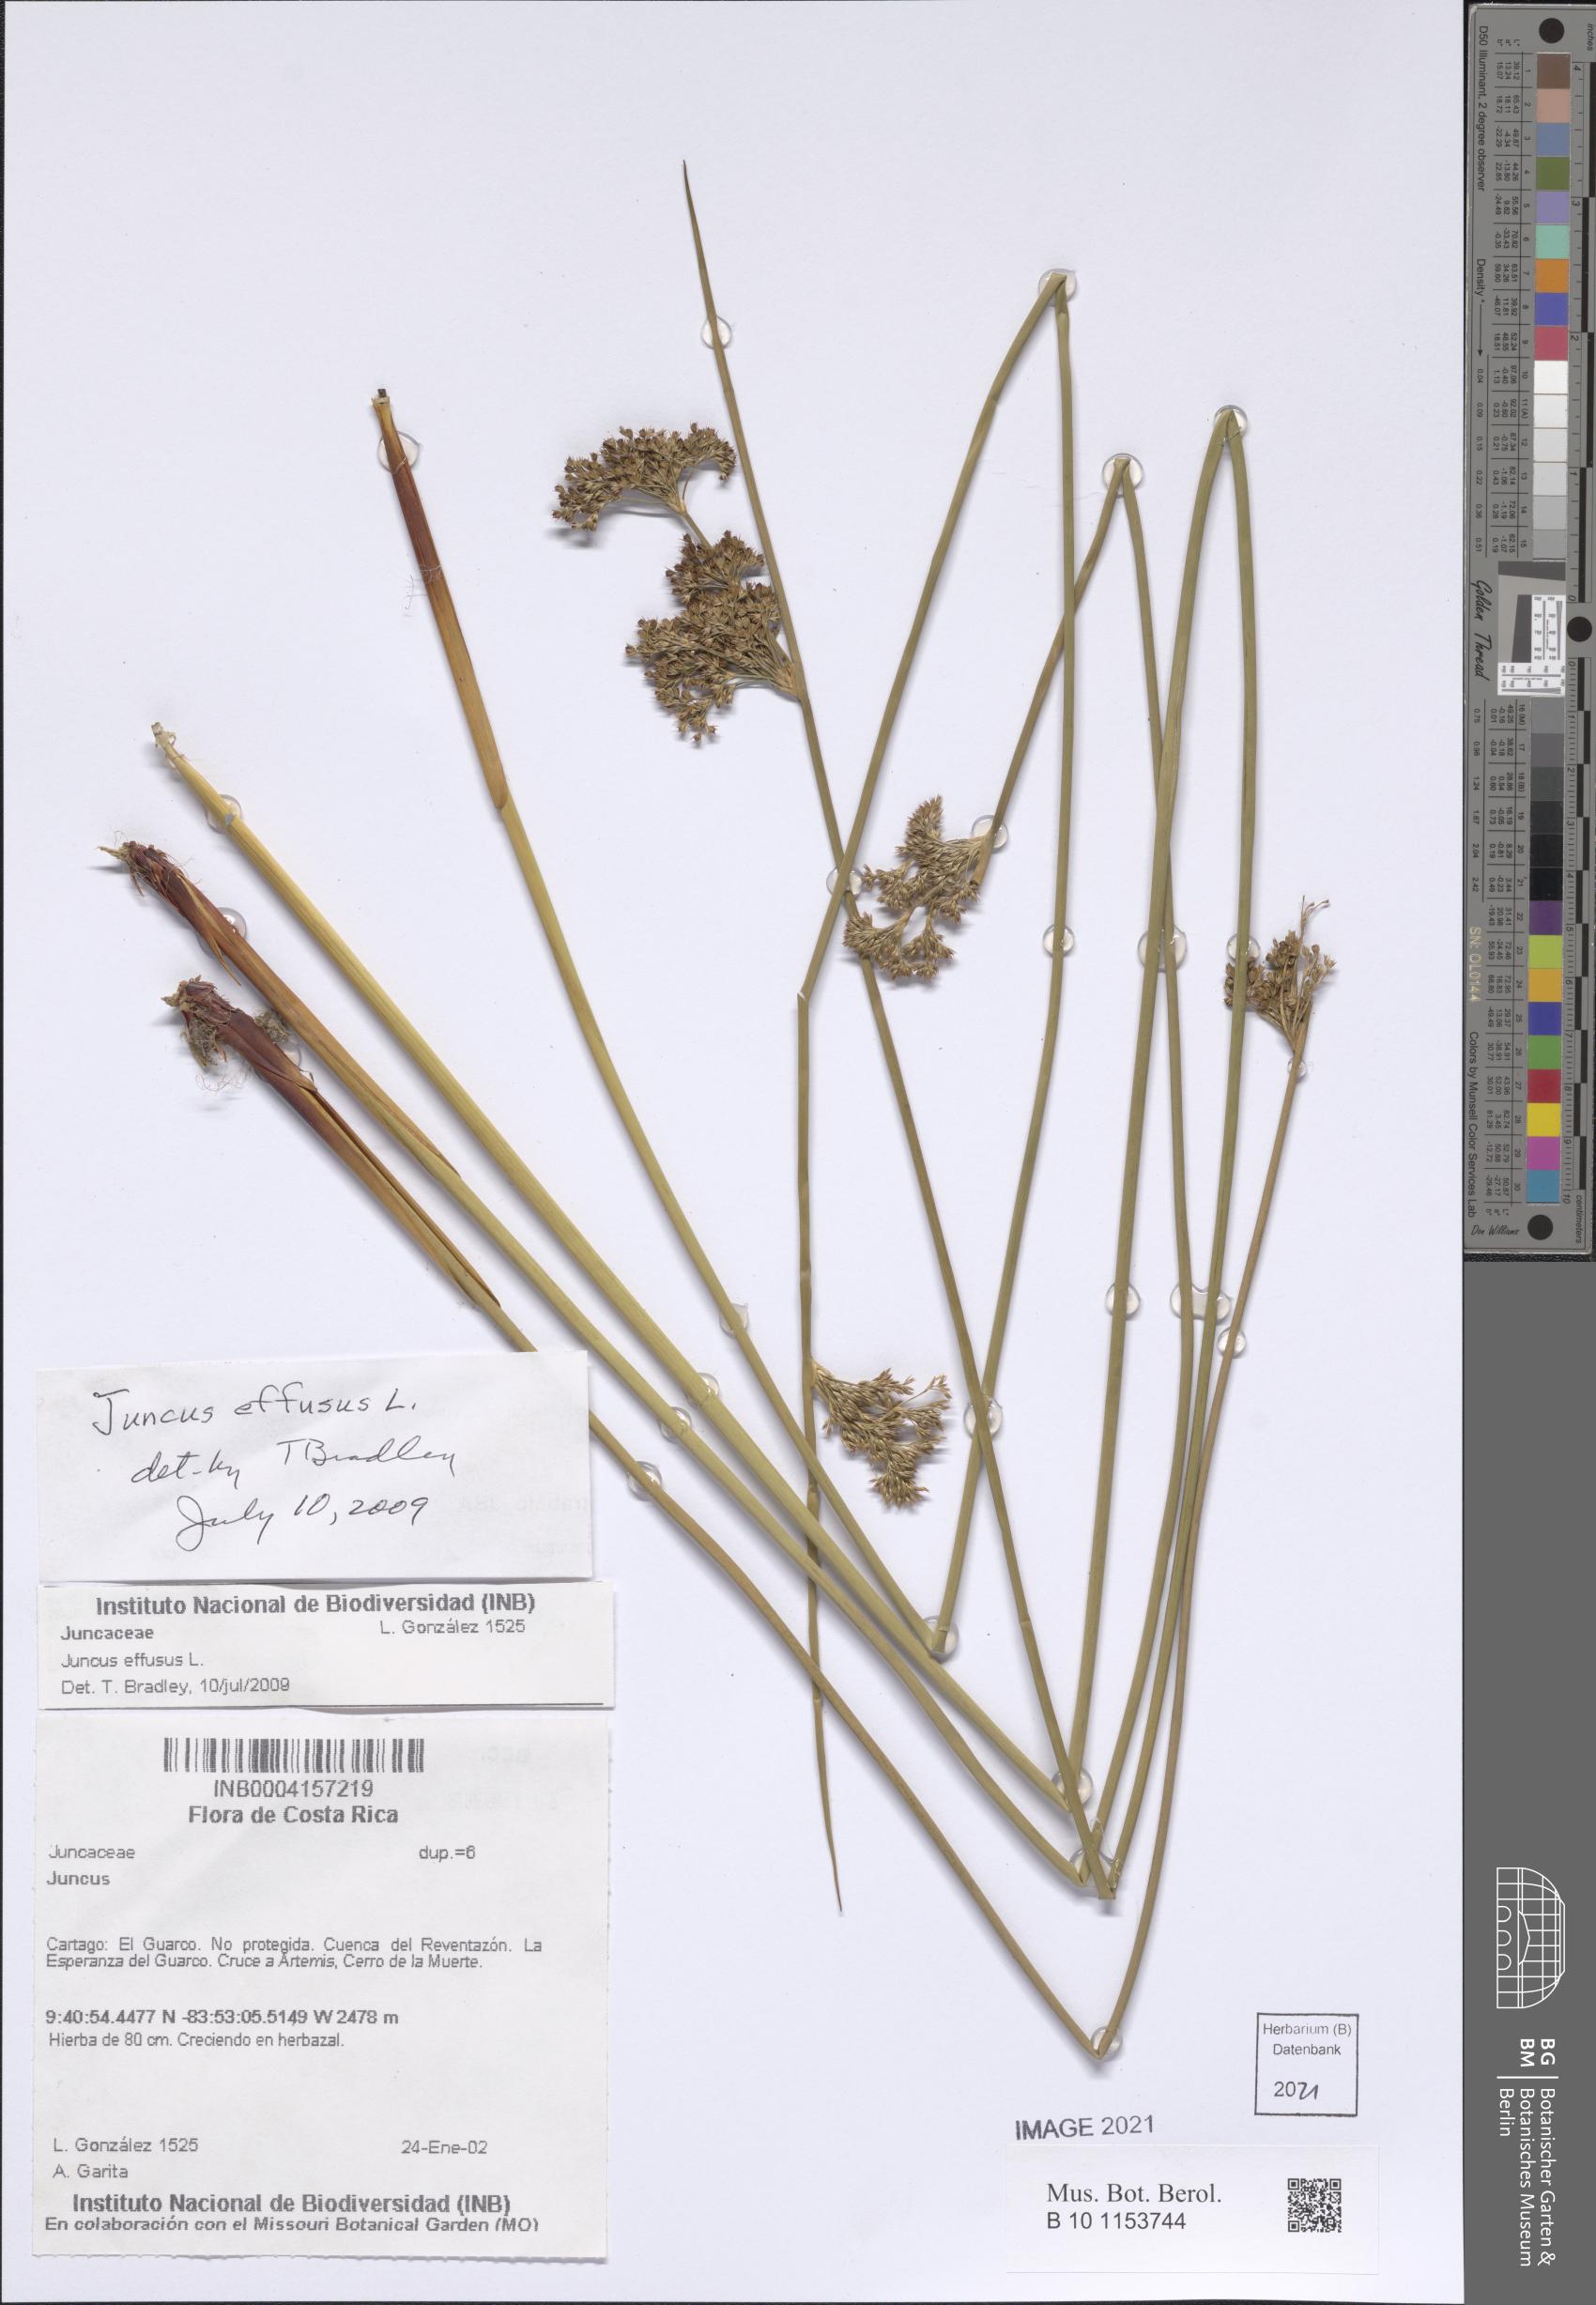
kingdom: Plantae
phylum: Tracheophyta
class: Liliopsida
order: Poales
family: Juncaceae
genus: Juncus
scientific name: Juncus effusus
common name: Soft rush
